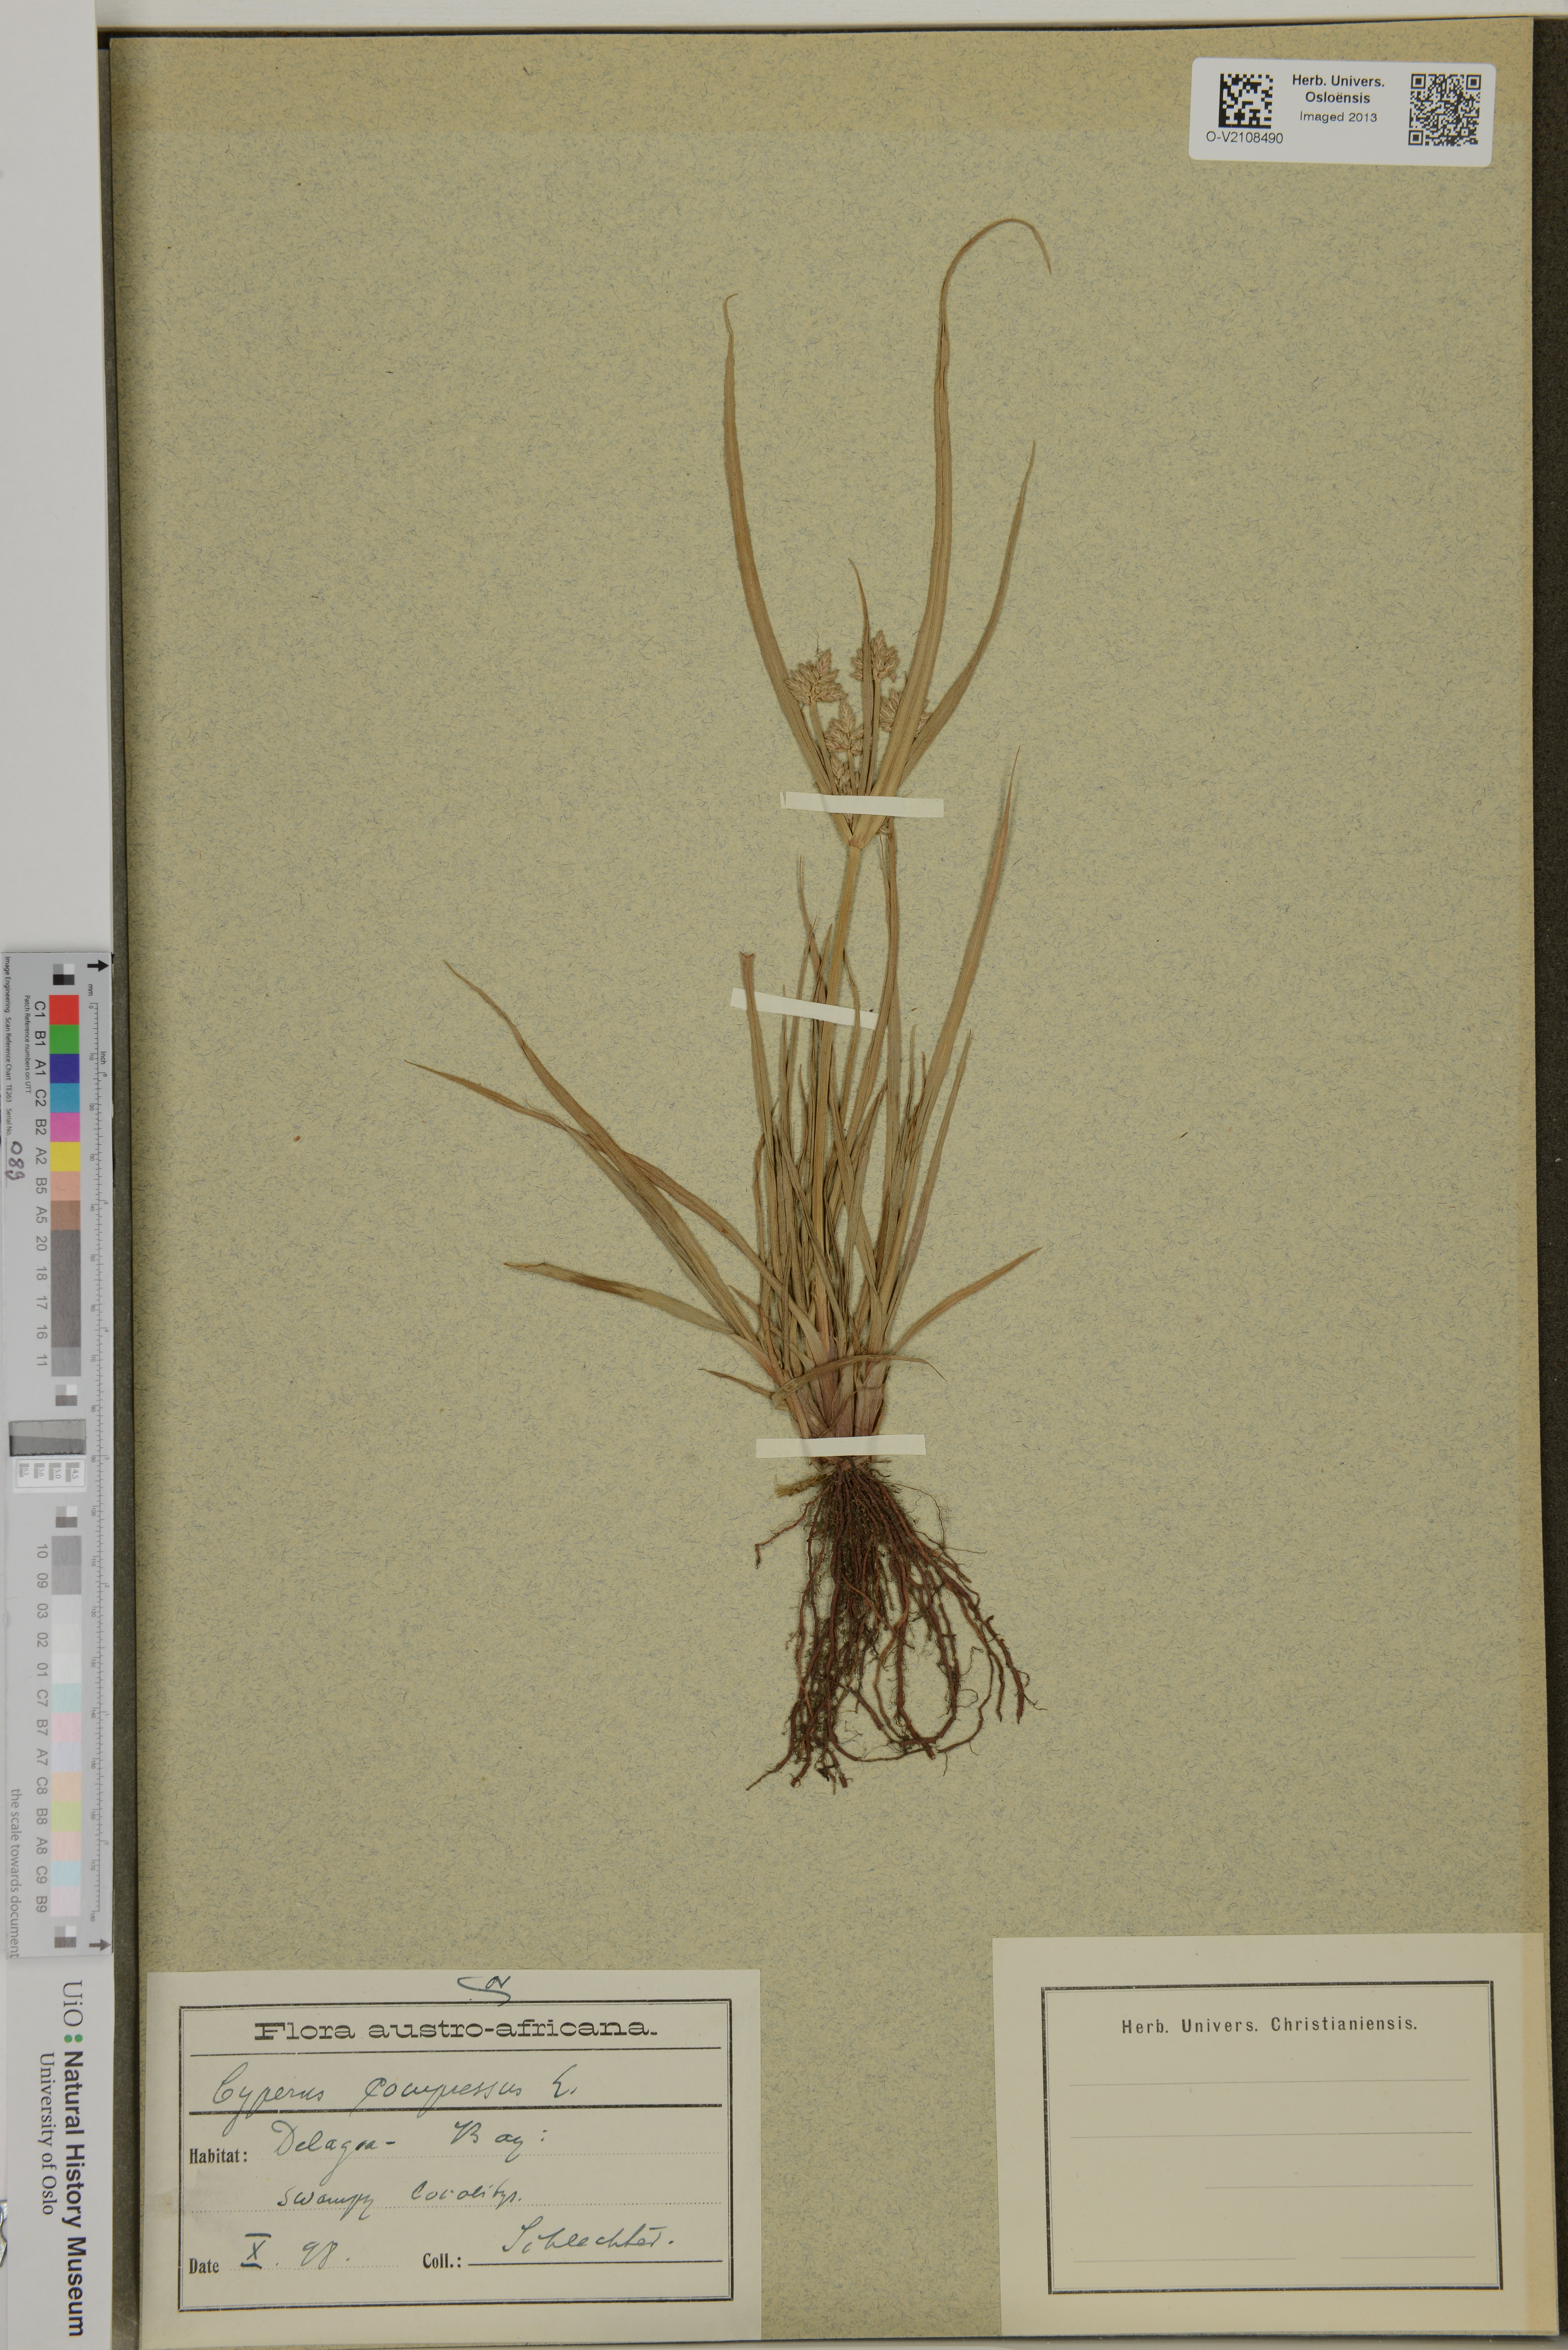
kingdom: Plantae
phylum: Tracheophyta
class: Liliopsida
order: Poales
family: Cyperaceae
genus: Cyperus
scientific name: Cyperus compressus
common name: Poorland flatsedge
